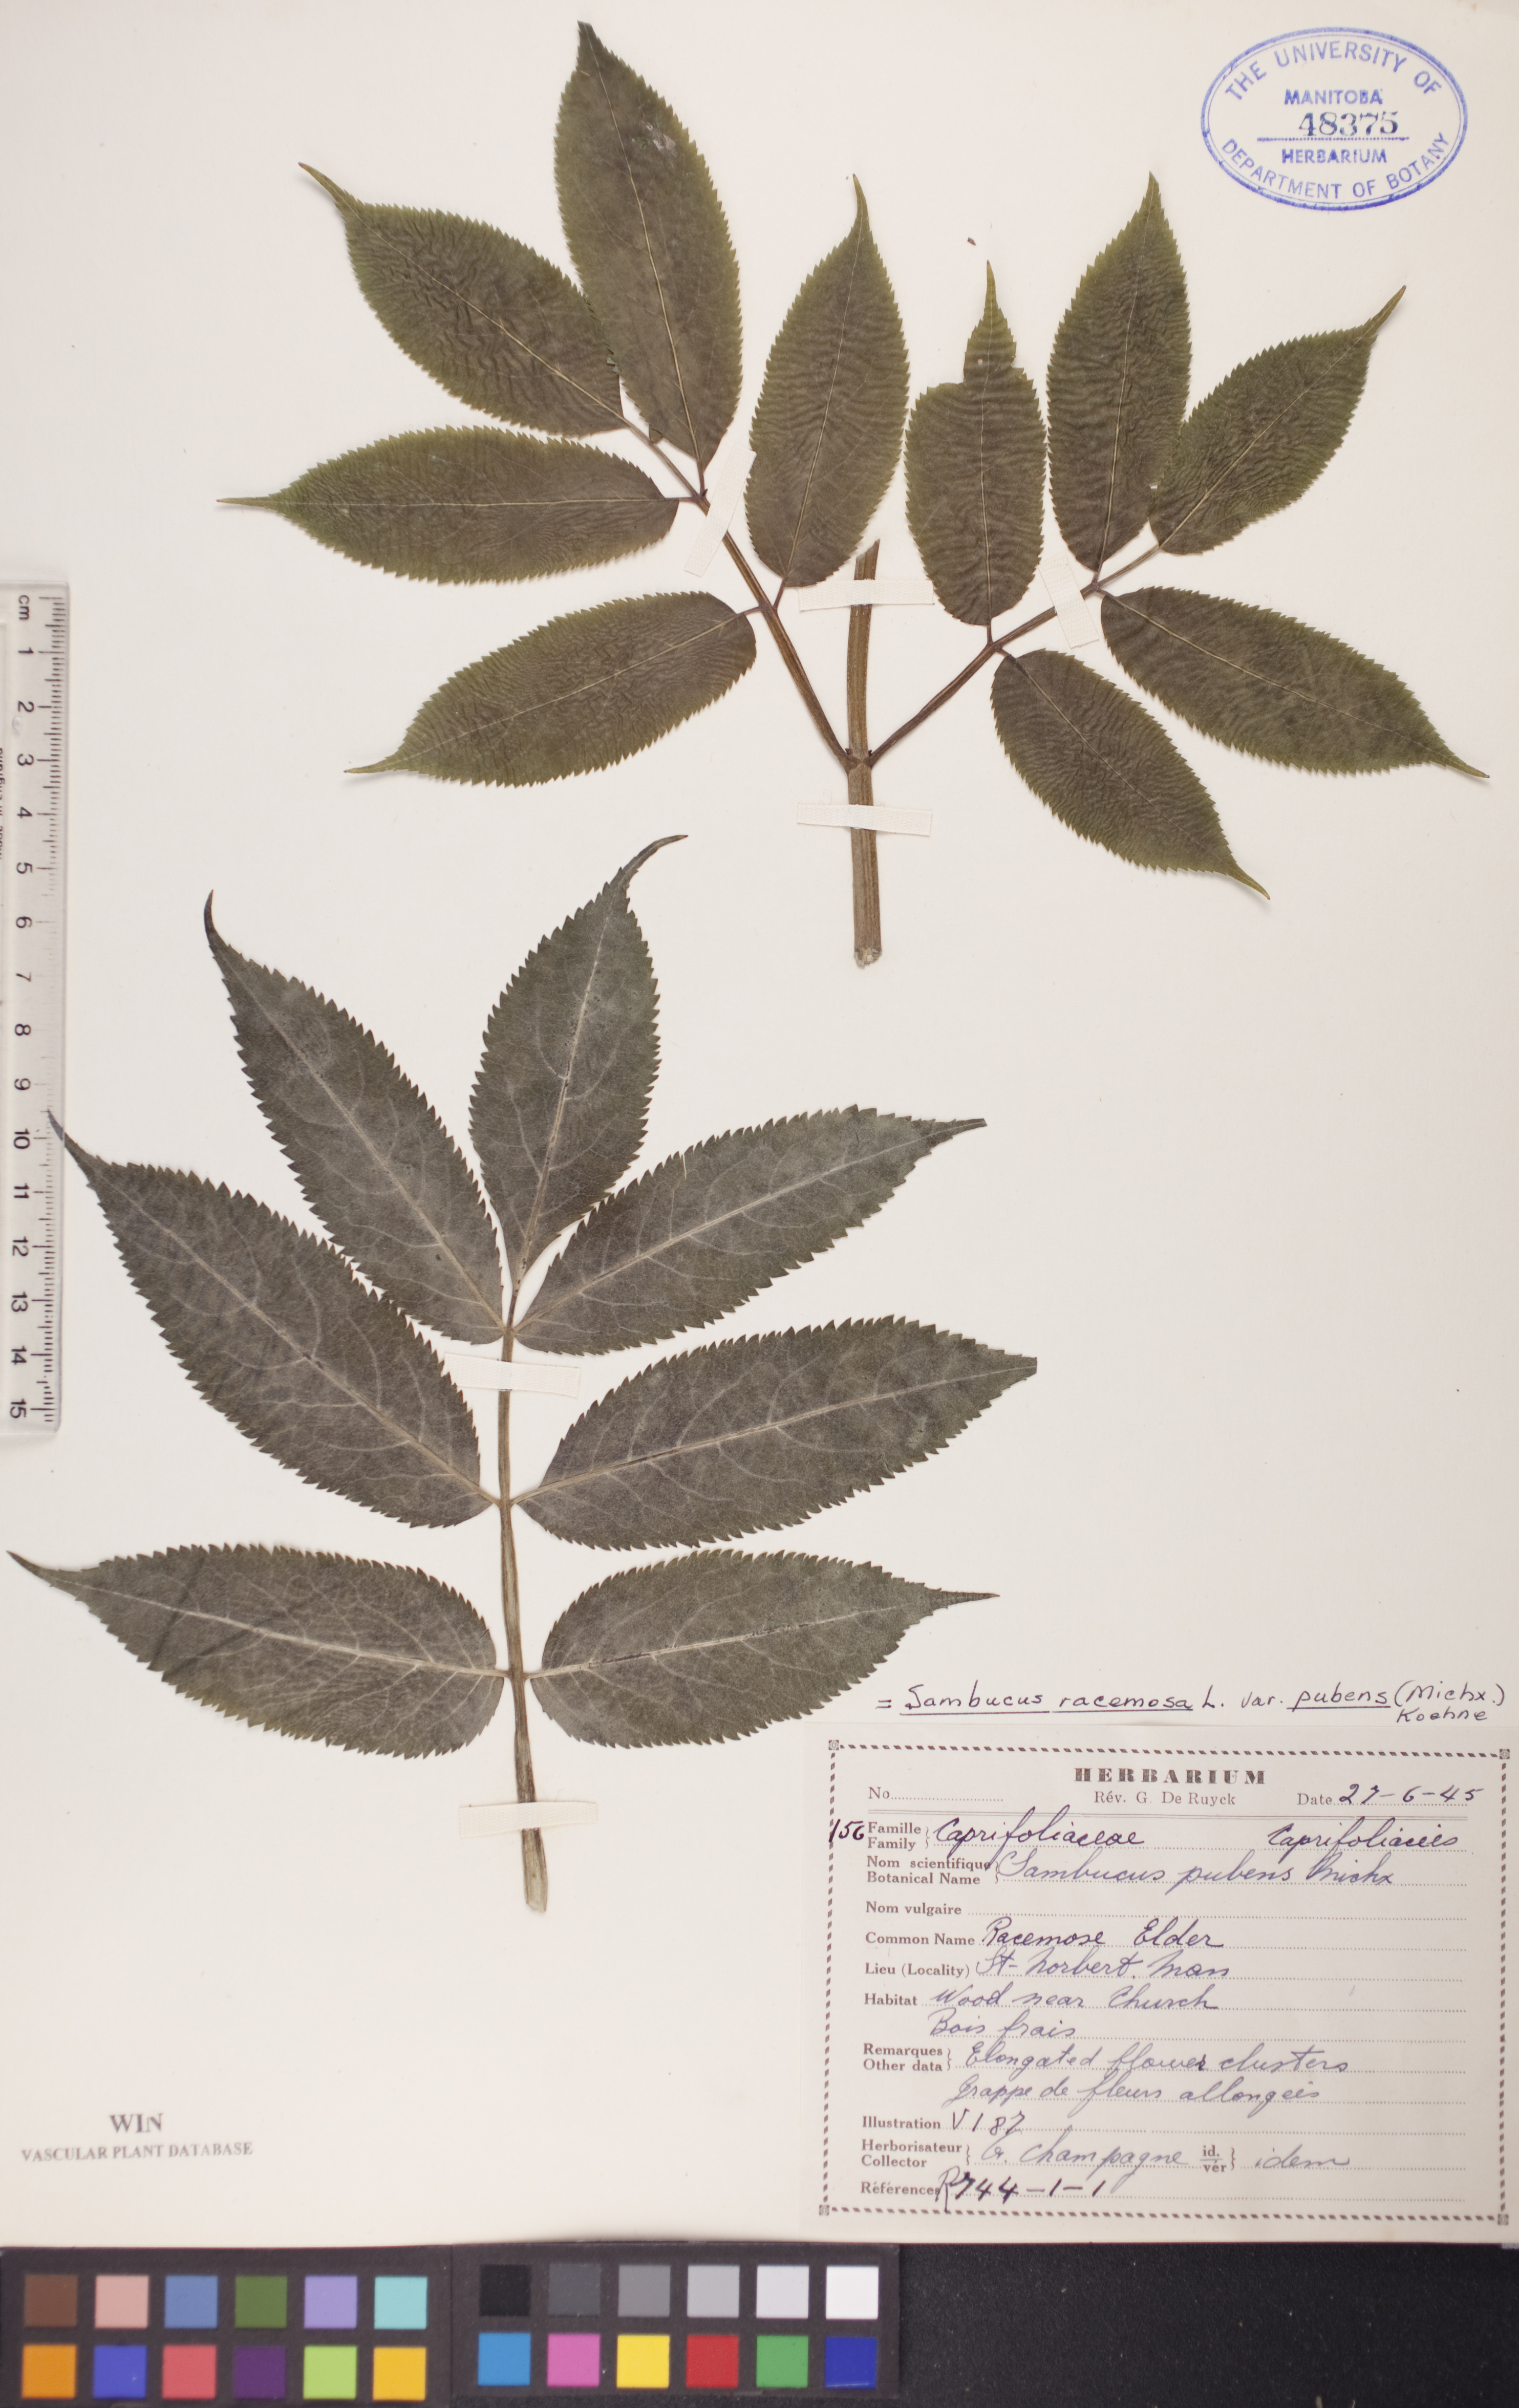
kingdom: Plantae
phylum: Tracheophyta
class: Magnoliopsida
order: Dipsacales
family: Viburnaceae
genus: Sambucus
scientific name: Sambucus racemosa
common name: Red-berried elder
